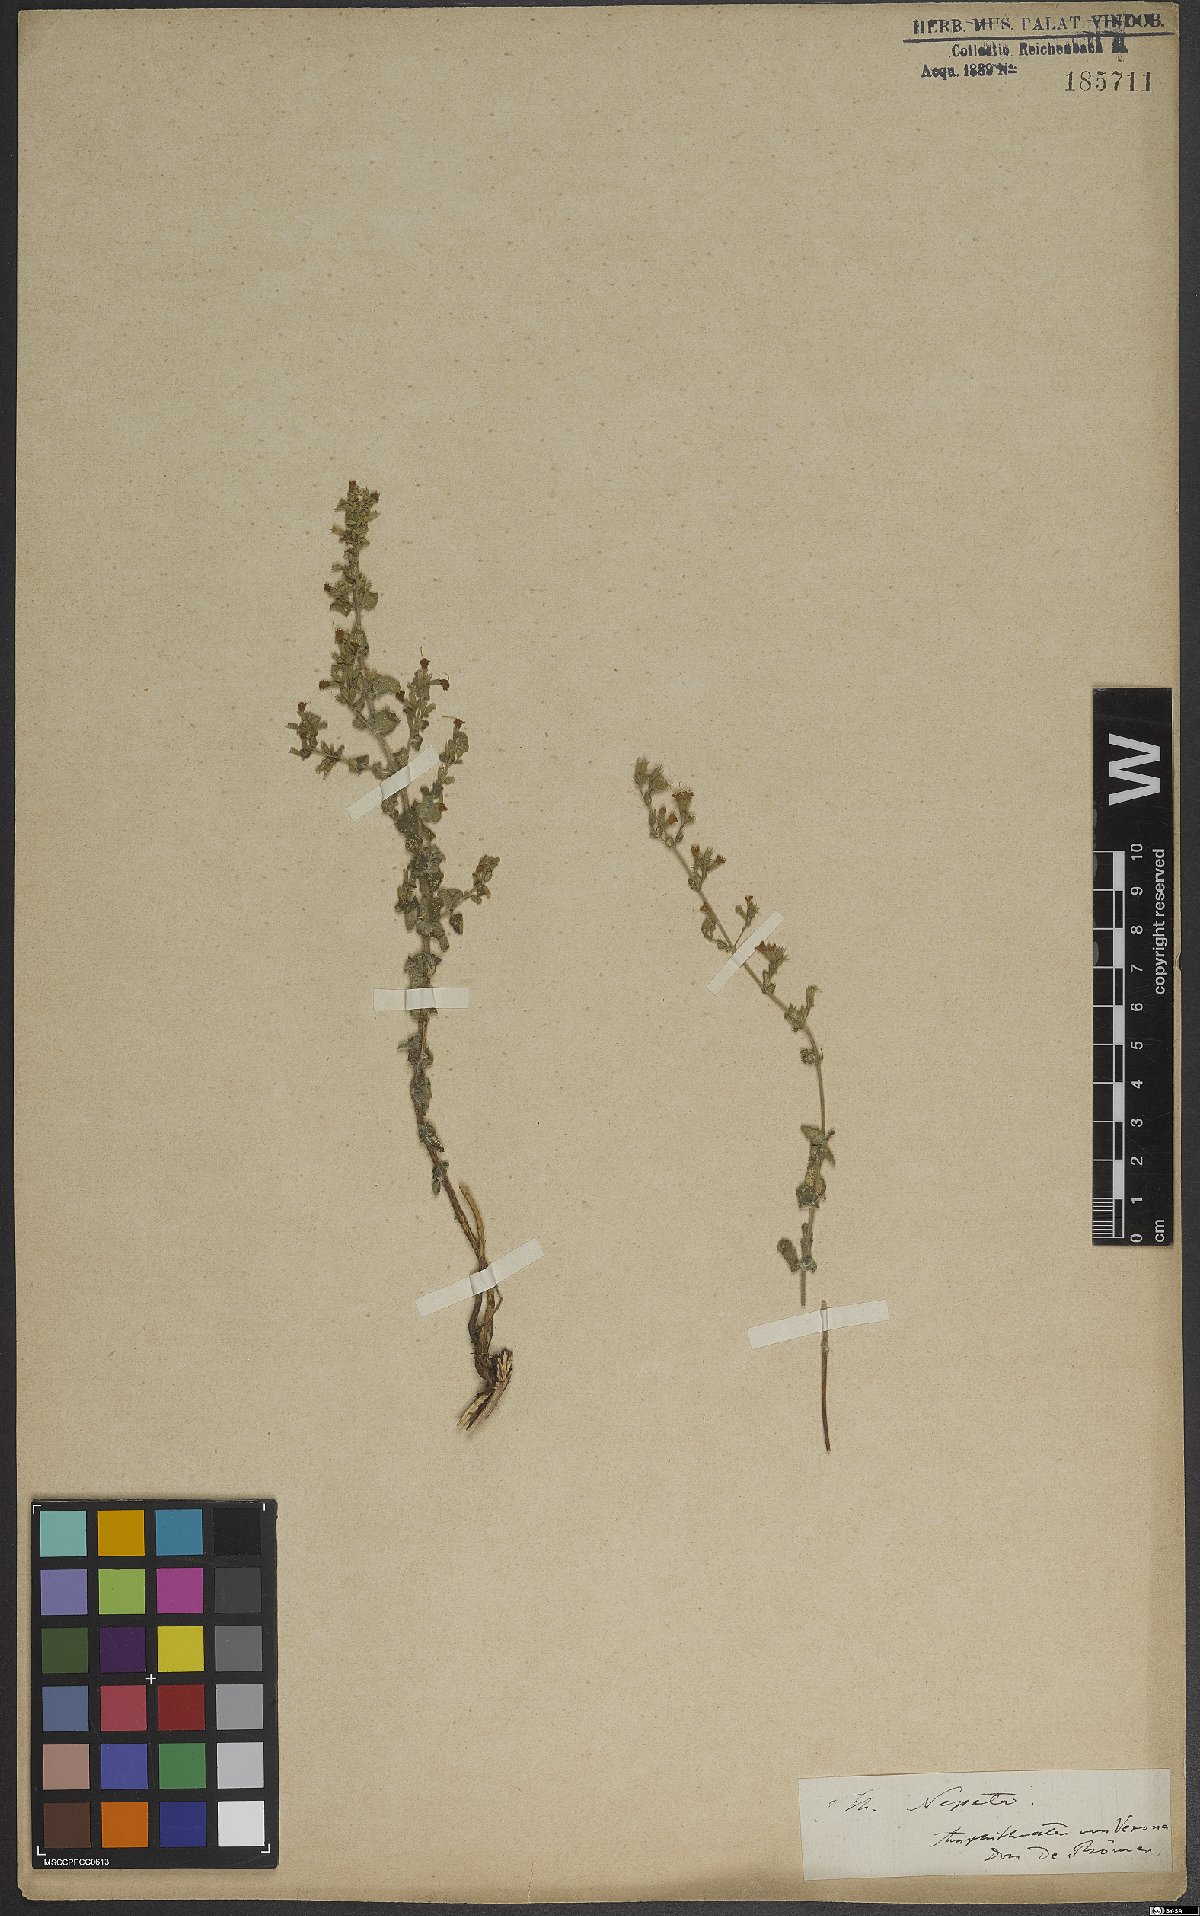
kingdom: Plantae
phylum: Tracheophyta
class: Magnoliopsida
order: Lamiales
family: Lamiaceae
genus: Clinopodium
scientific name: Clinopodium nepeta
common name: Lesser calamint
